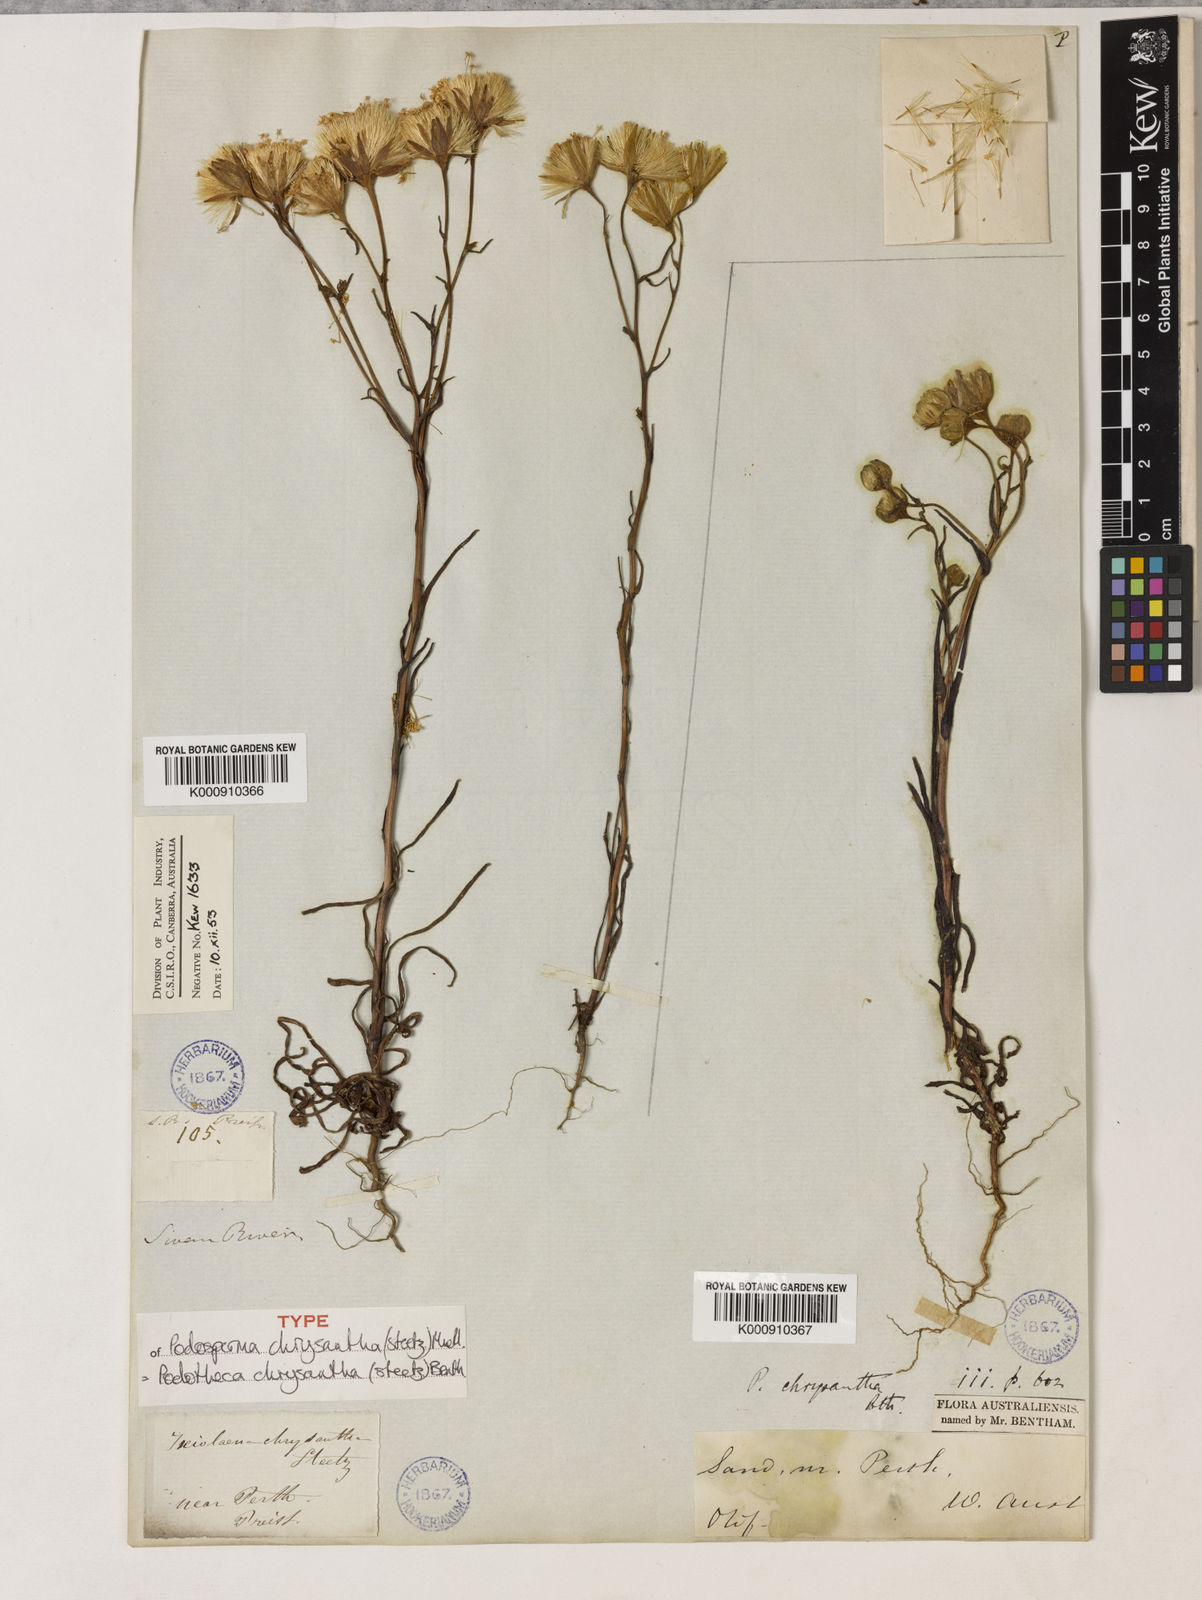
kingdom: Plantae
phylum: Tracheophyta
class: Magnoliopsida
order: Asterales
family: Asteraceae
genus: Podotheca
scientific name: Podotheca chrysantha
